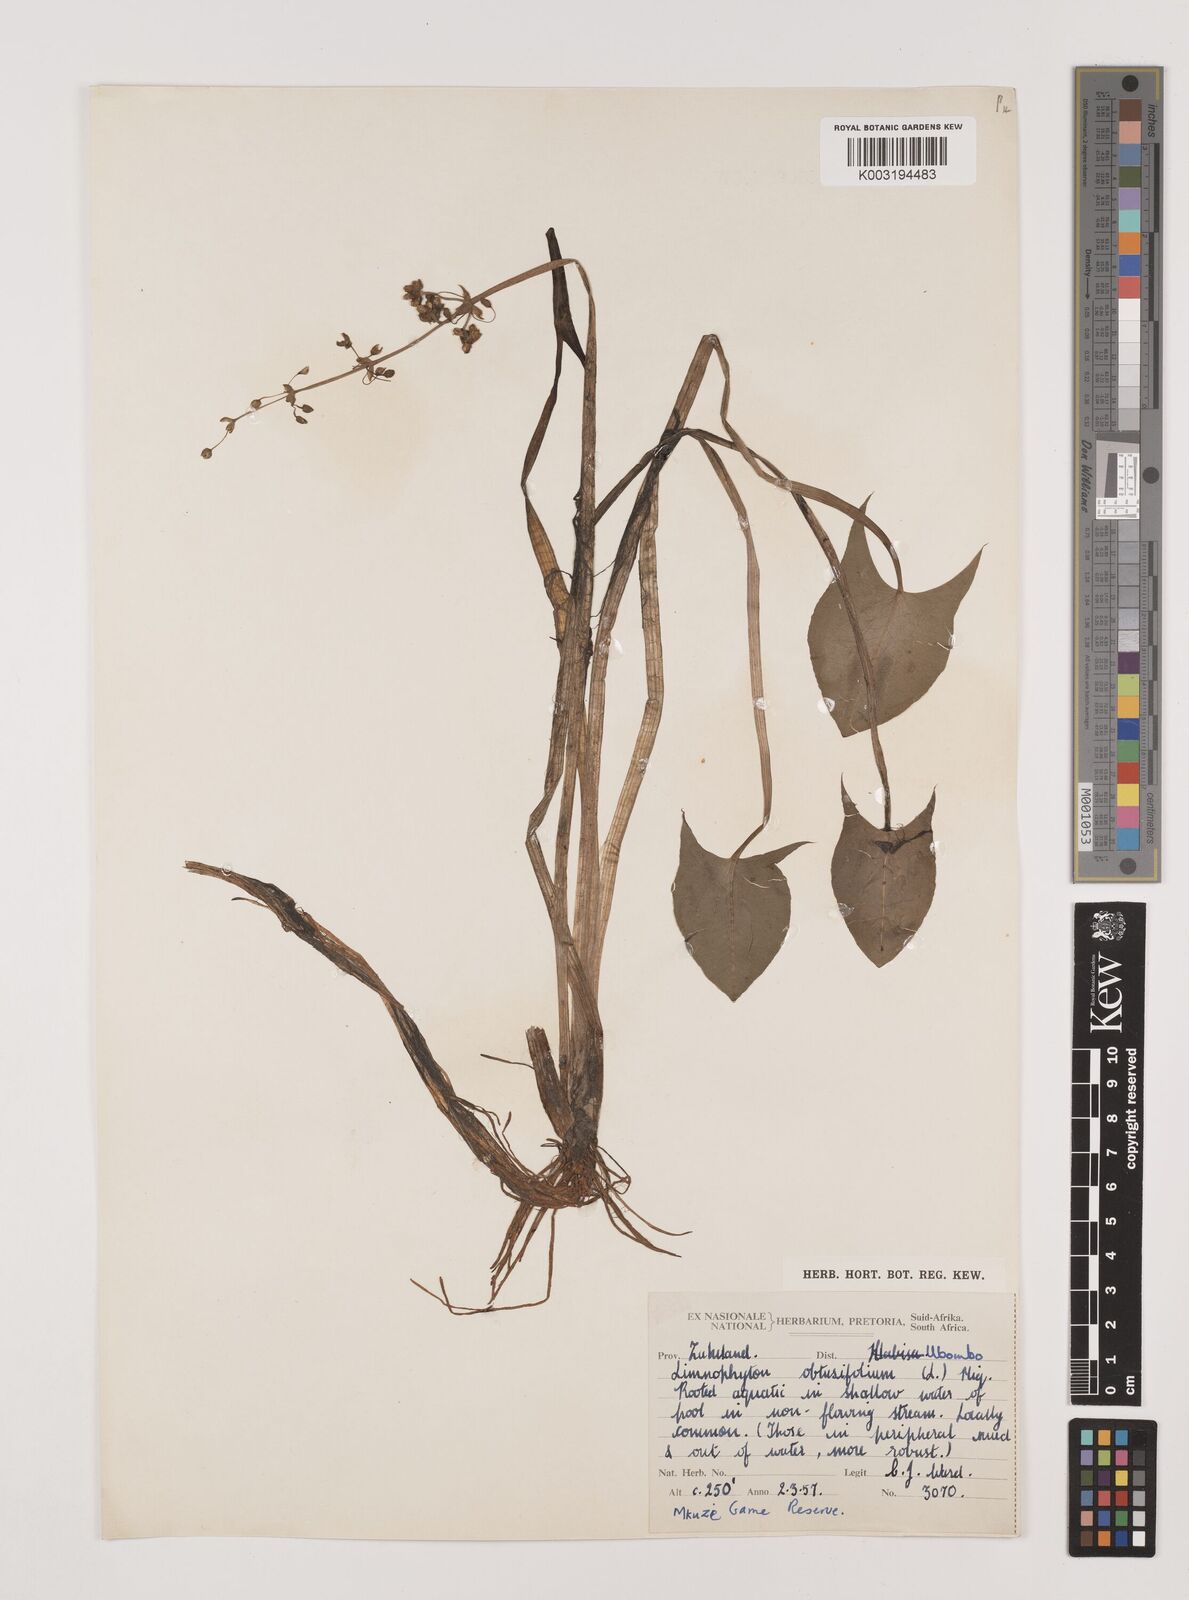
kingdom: Plantae
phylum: Tracheophyta
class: Liliopsida
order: Alismatales
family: Alismataceae
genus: Limnophyton
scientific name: Limnophyton obtusifolium
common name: Arrow head
